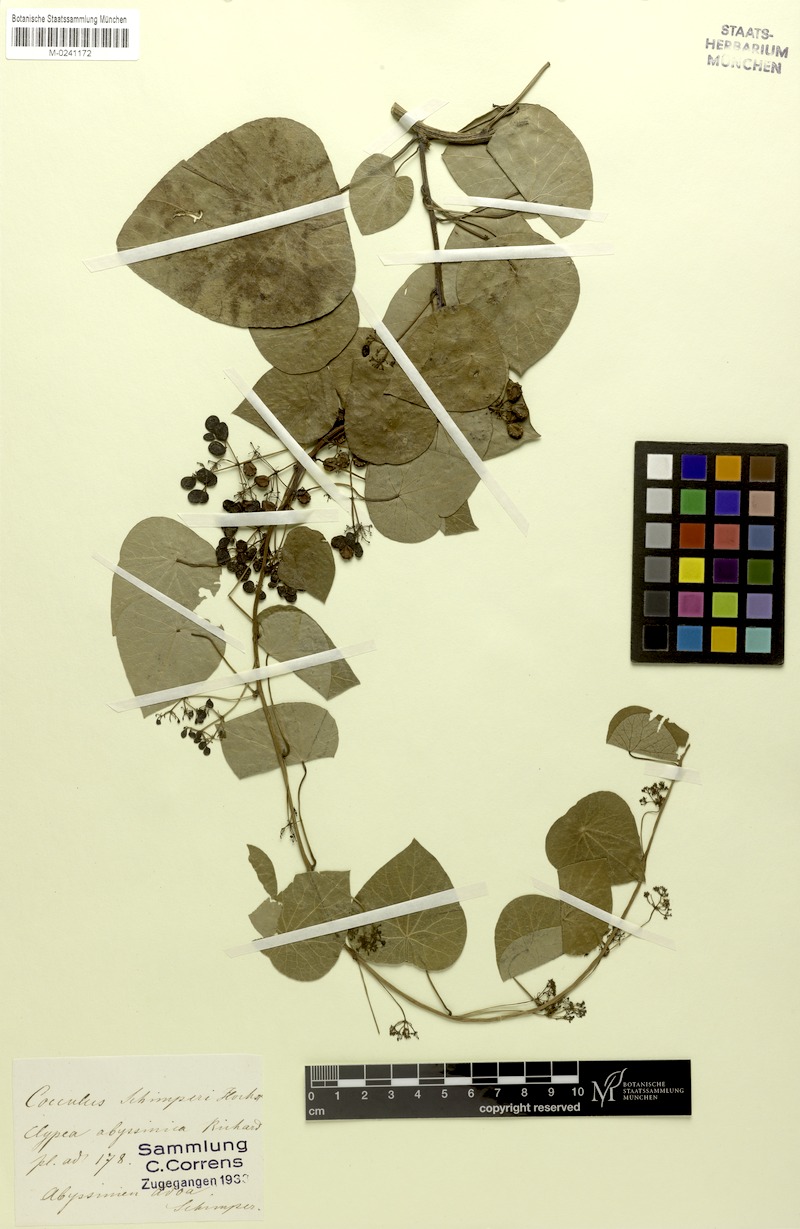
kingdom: Plantae
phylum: Tracheophyta
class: Magnoliopsida
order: Ranunculales
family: Menispermaceae
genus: Stephania
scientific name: Stephania abyssinica
